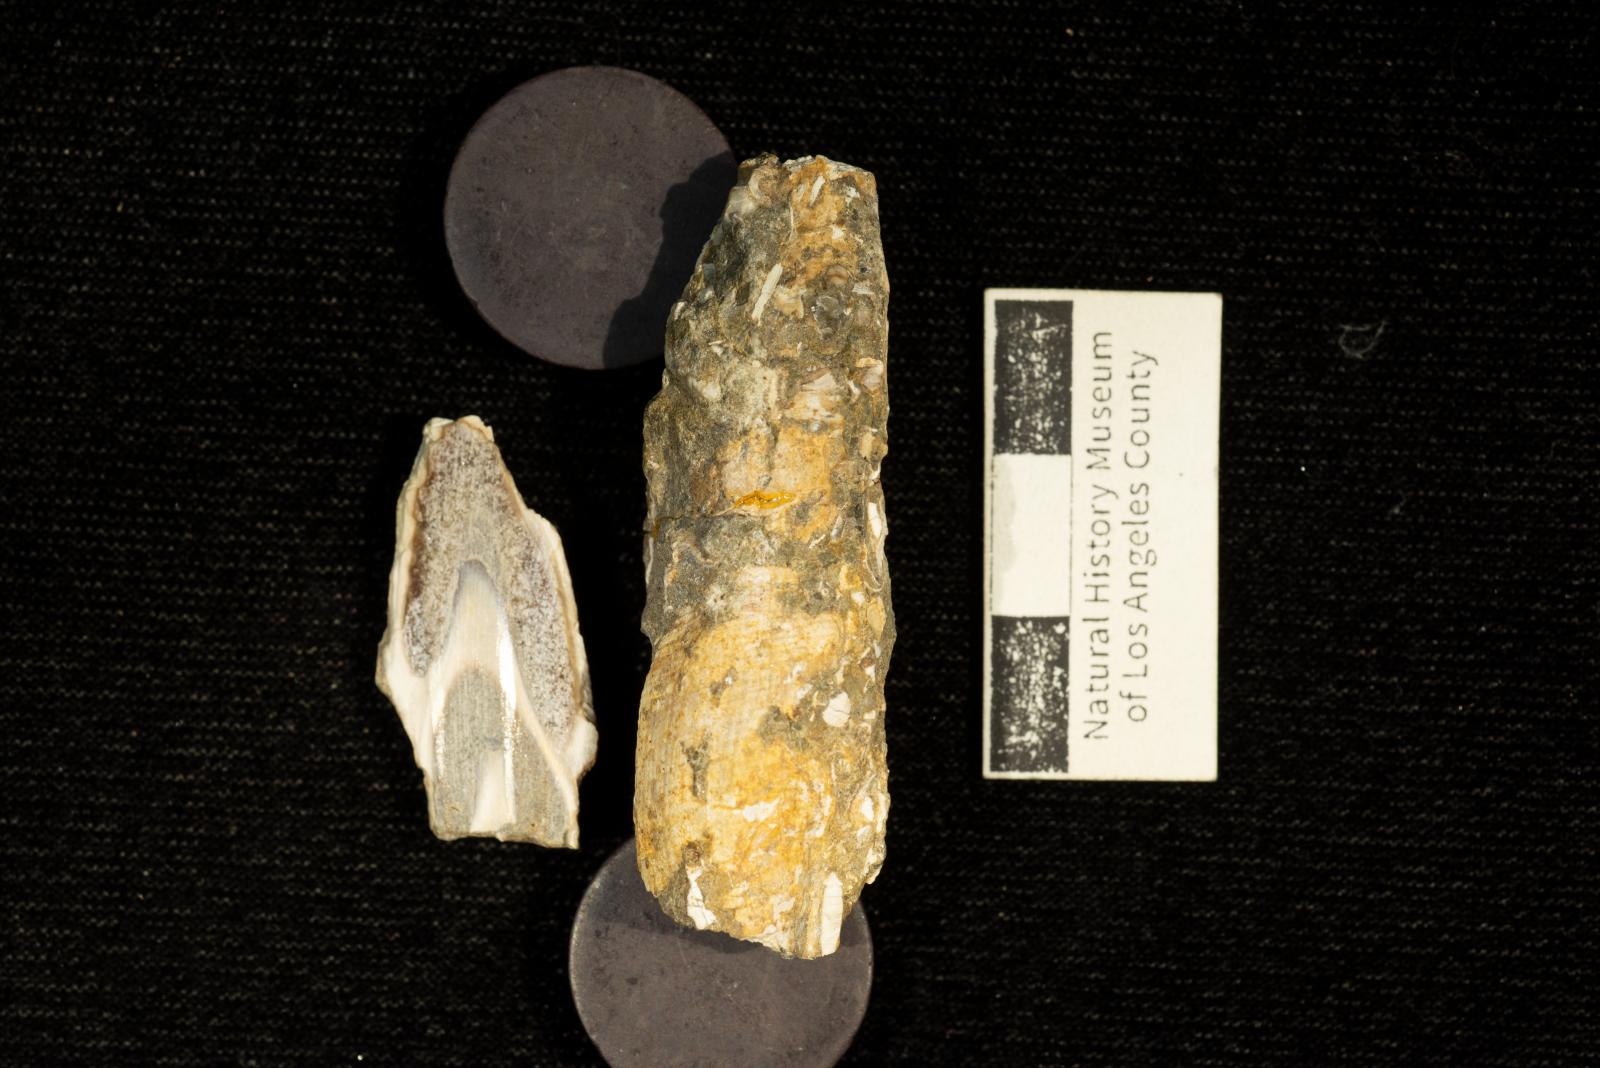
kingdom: Animalia
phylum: Mollusca
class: Gastropoda
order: Neogastropoda
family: Ptychatractidae
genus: Exilia
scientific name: Exilia stechesonae
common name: Snail
